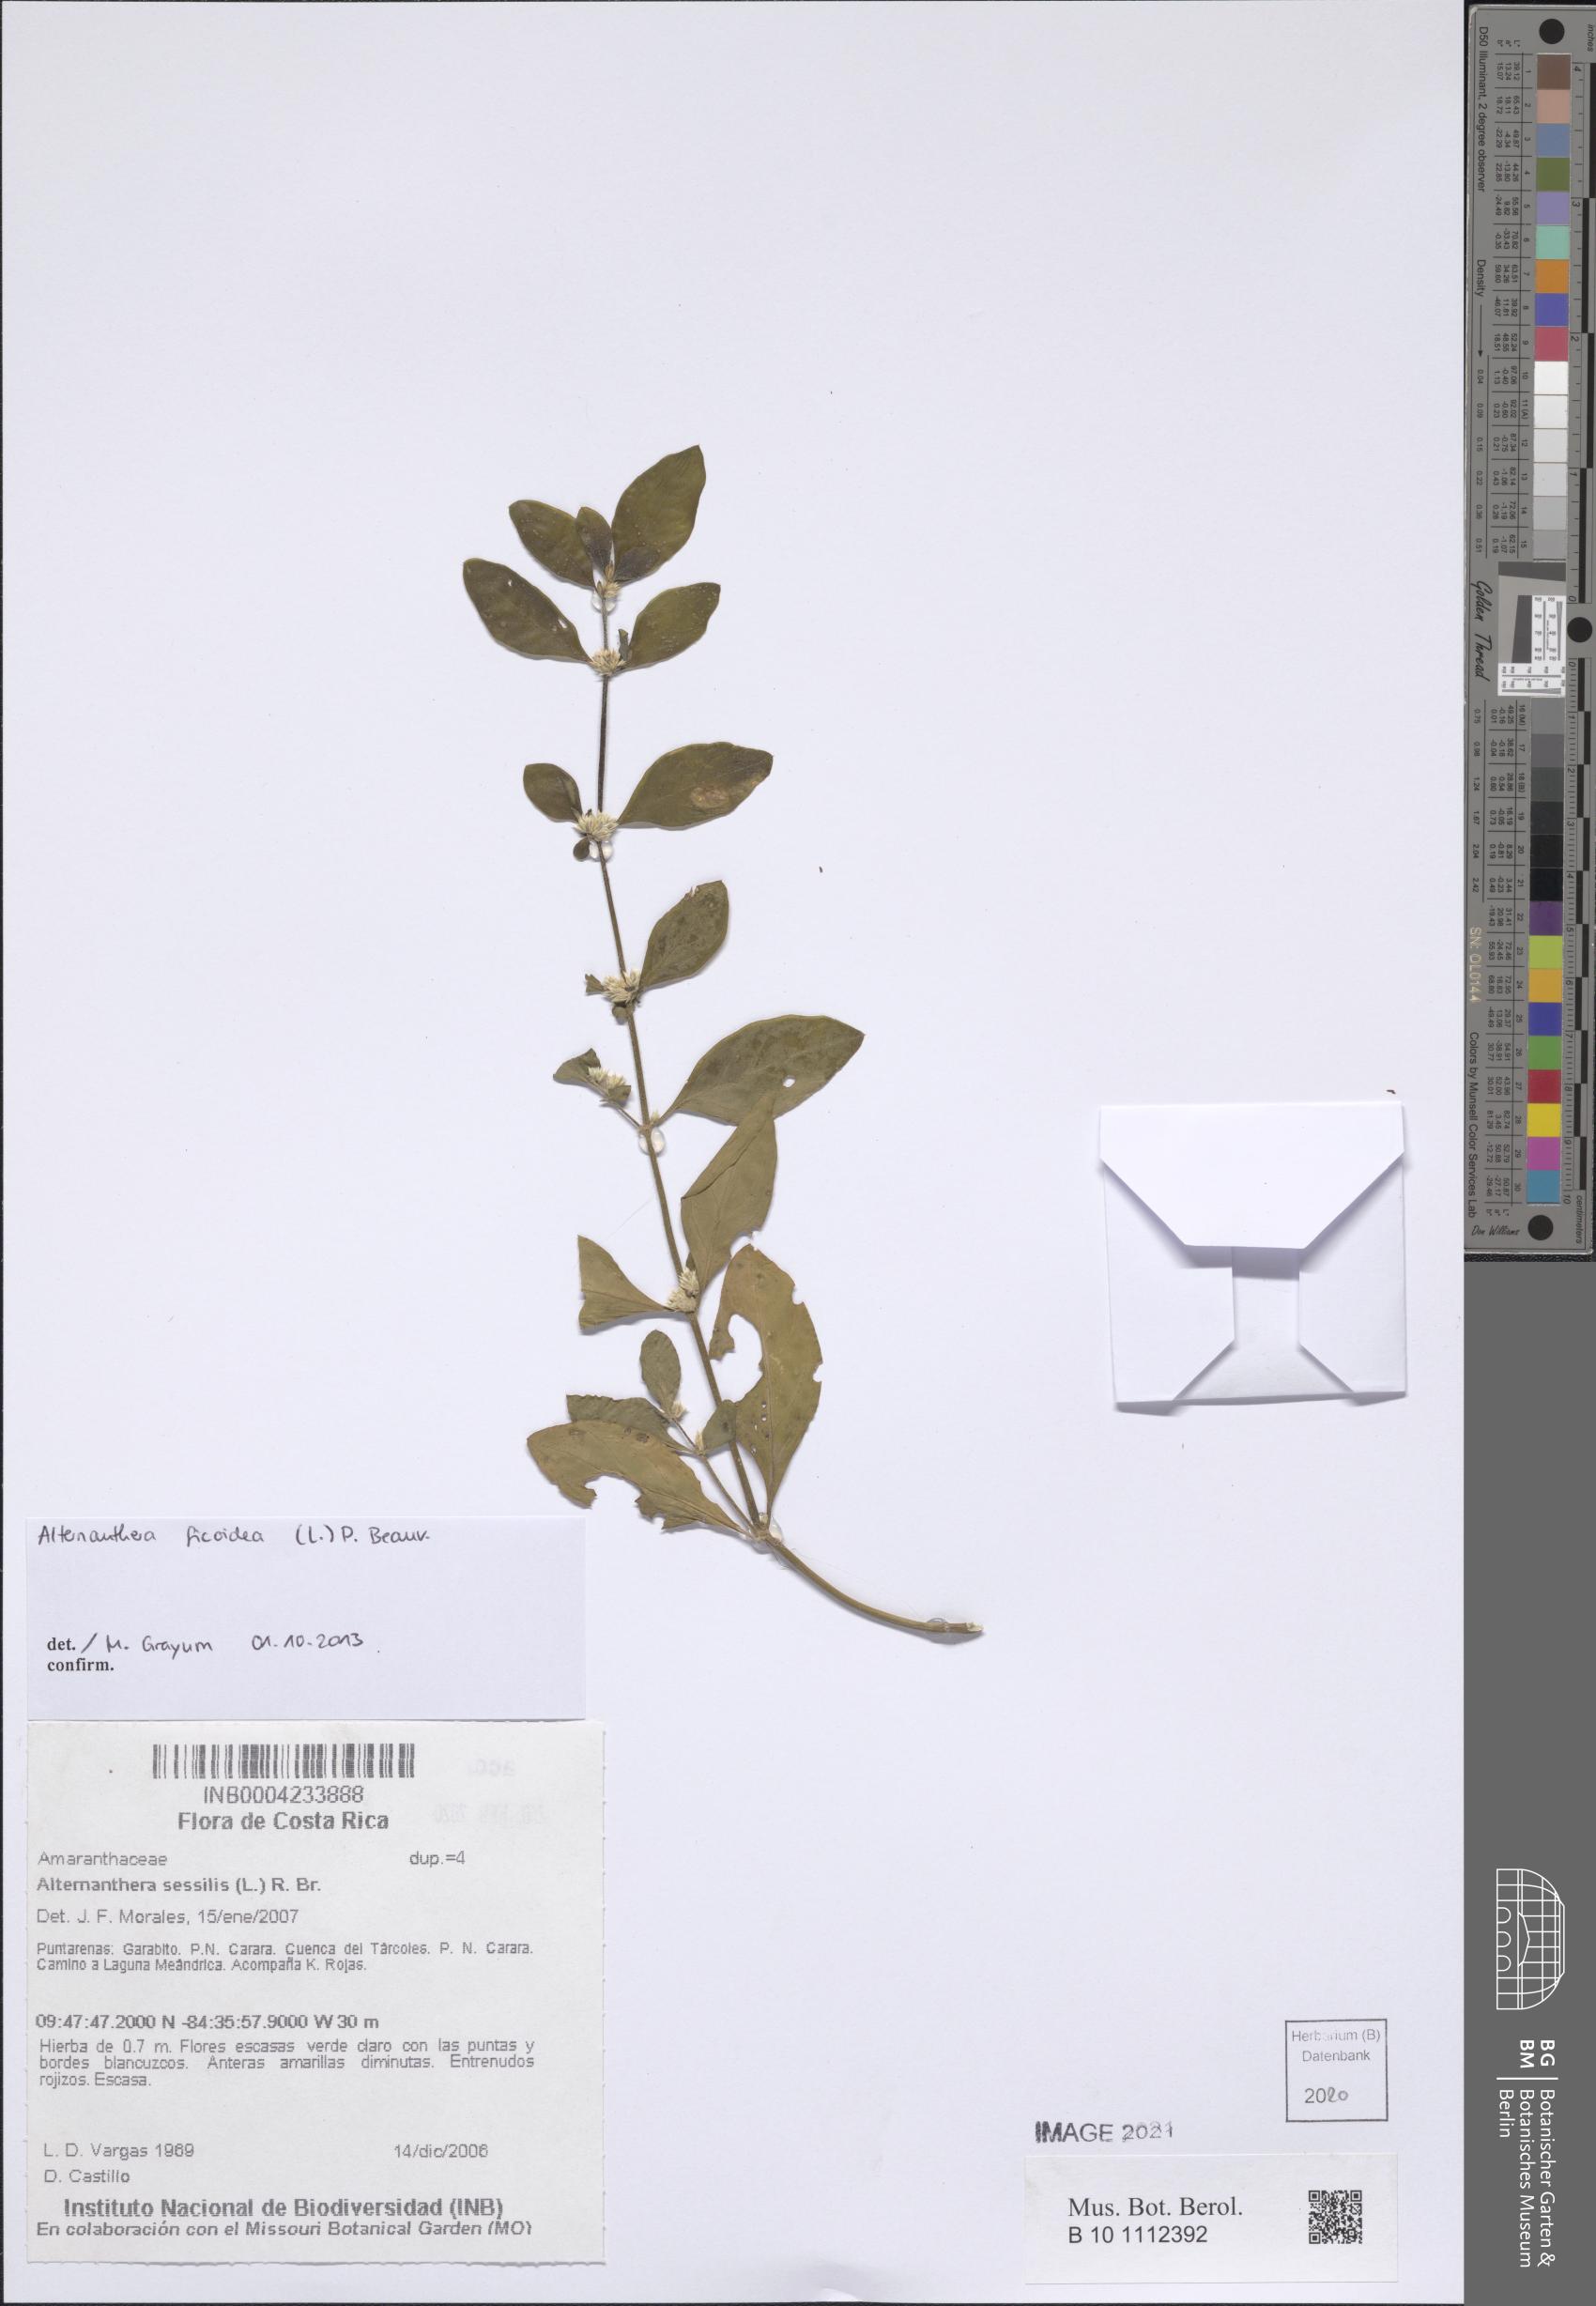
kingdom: Plantae
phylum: Tracheophyta
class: Magnoliopsida
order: Caryophyllales
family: Amaranthaceae
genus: Alternanthera
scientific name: Alternanthera ficoidea
